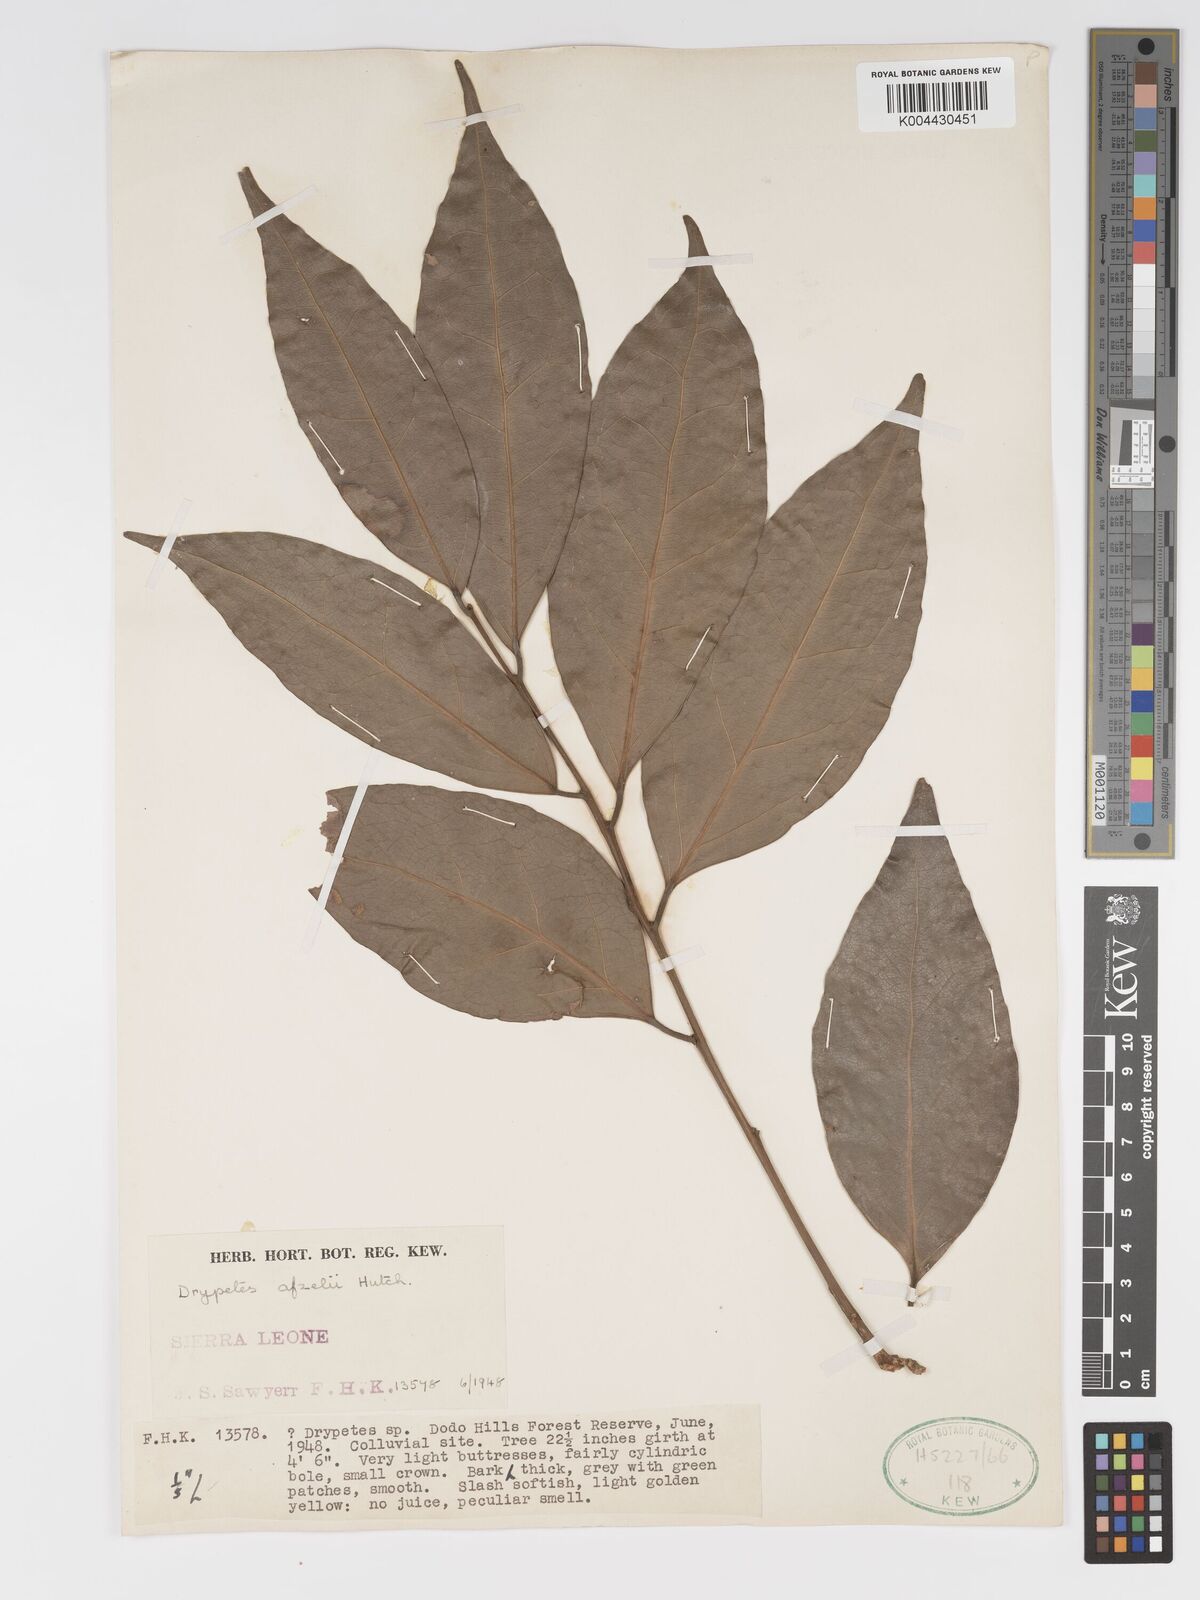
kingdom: Plantae
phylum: Tracheophyta
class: Magnoliopsida
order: Malpighiales
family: Putranjivaceae
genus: Drypetes
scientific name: Drypetes afzelii
